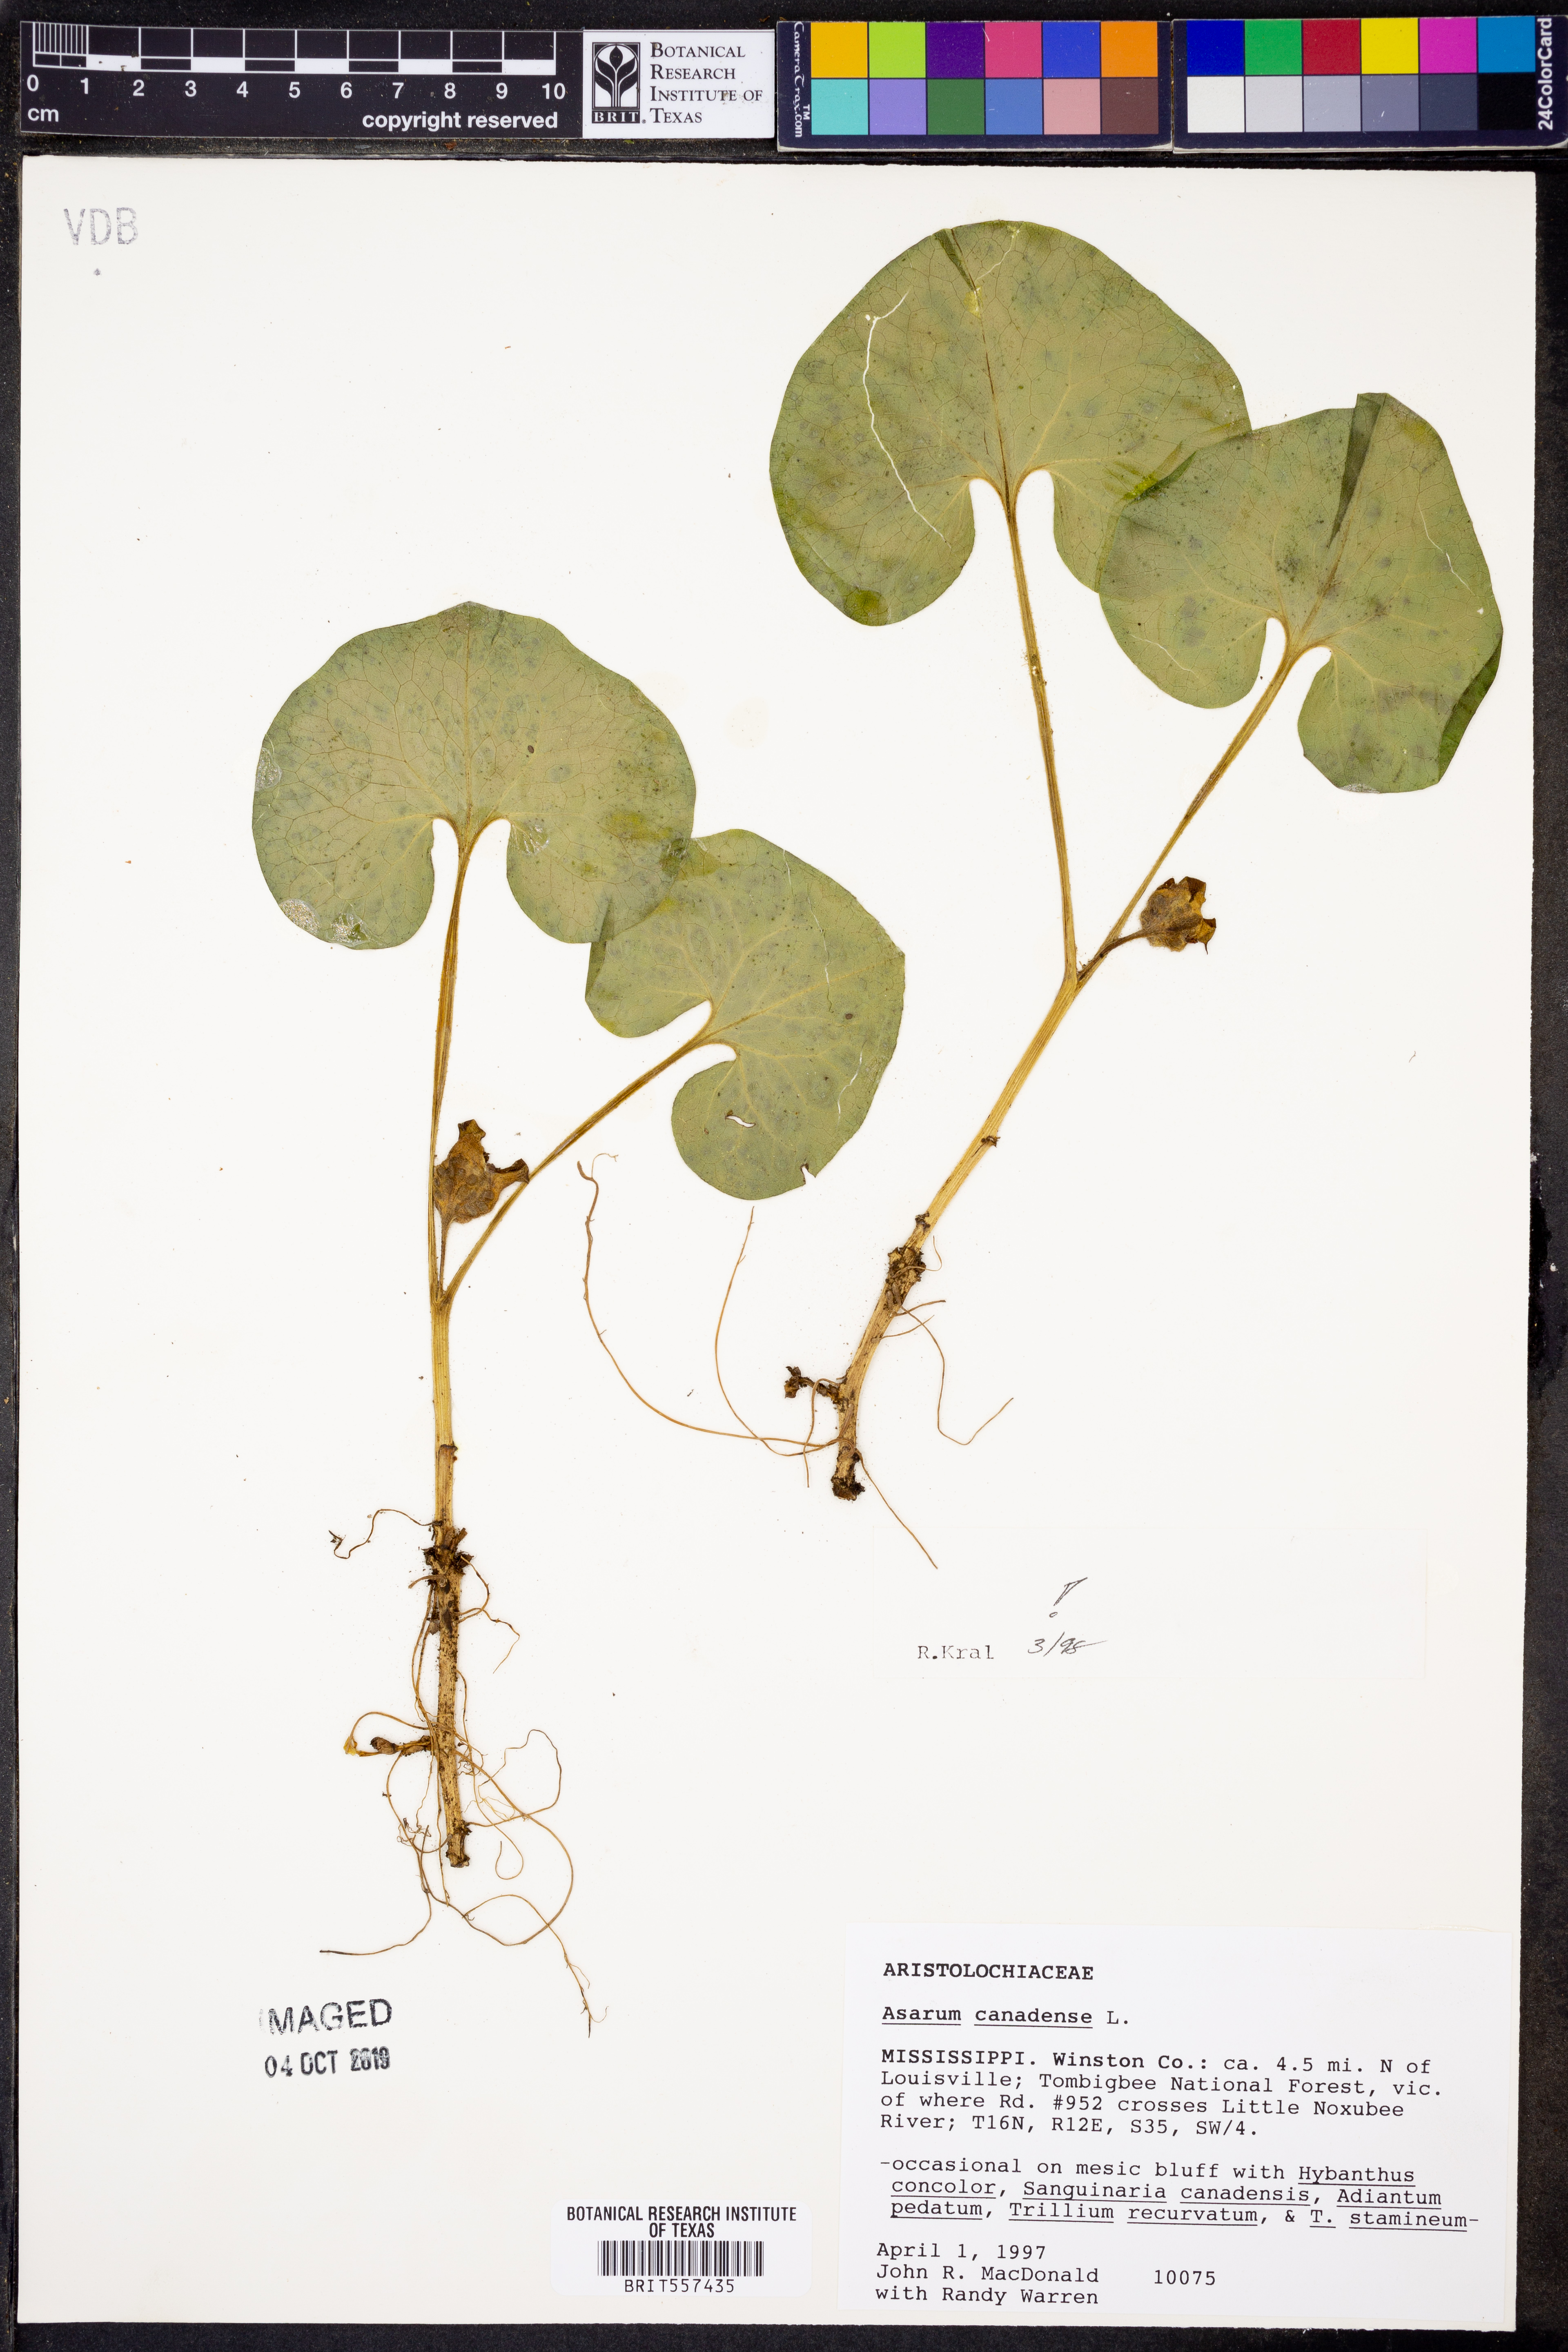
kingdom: Plantae
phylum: Tracheophyta
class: Magnoliopsida
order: Piperales
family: Aristolochiaceae
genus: Asarum
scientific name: Asarum canadense
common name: Wild ginger
